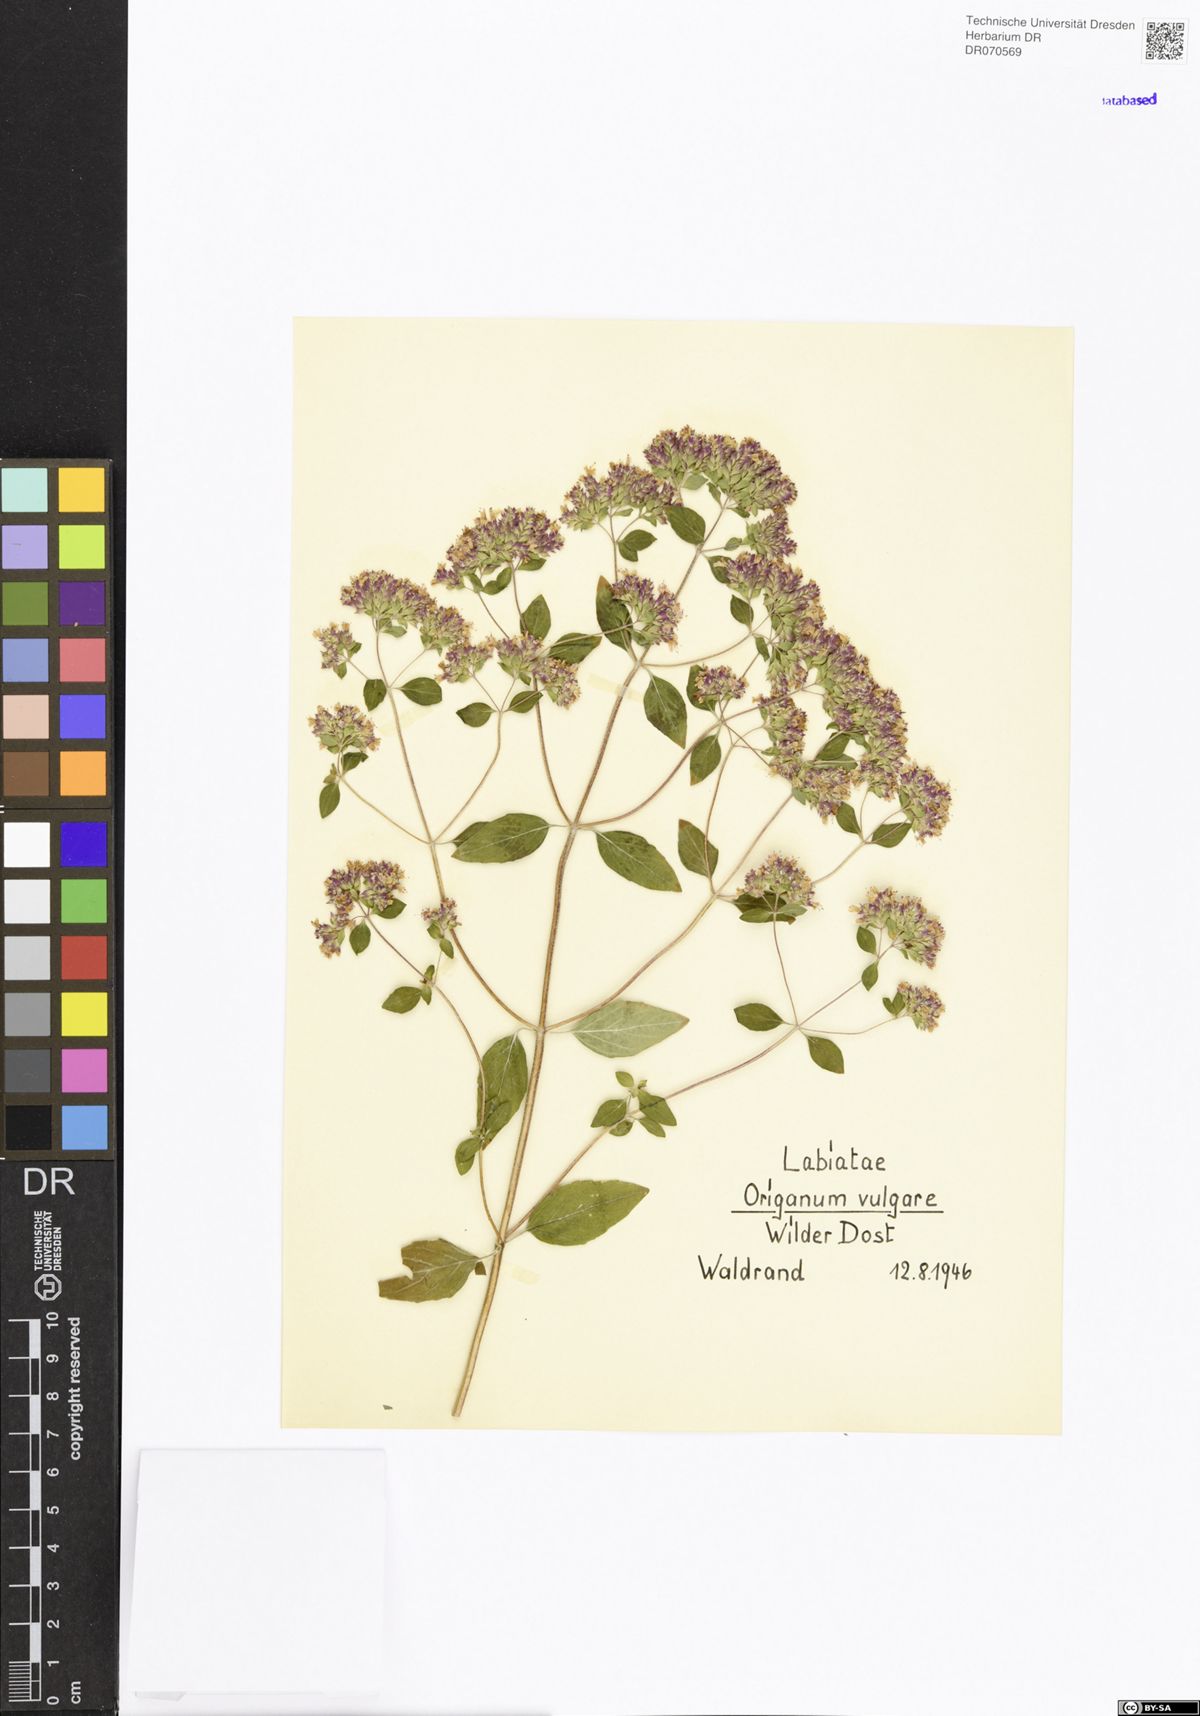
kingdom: Plantae
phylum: Tracheophyta
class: Magnoliopsida
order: Lamiales
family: Lamiaceae
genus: Origanum
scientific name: Origanum vulgare
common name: Wild marjoram
